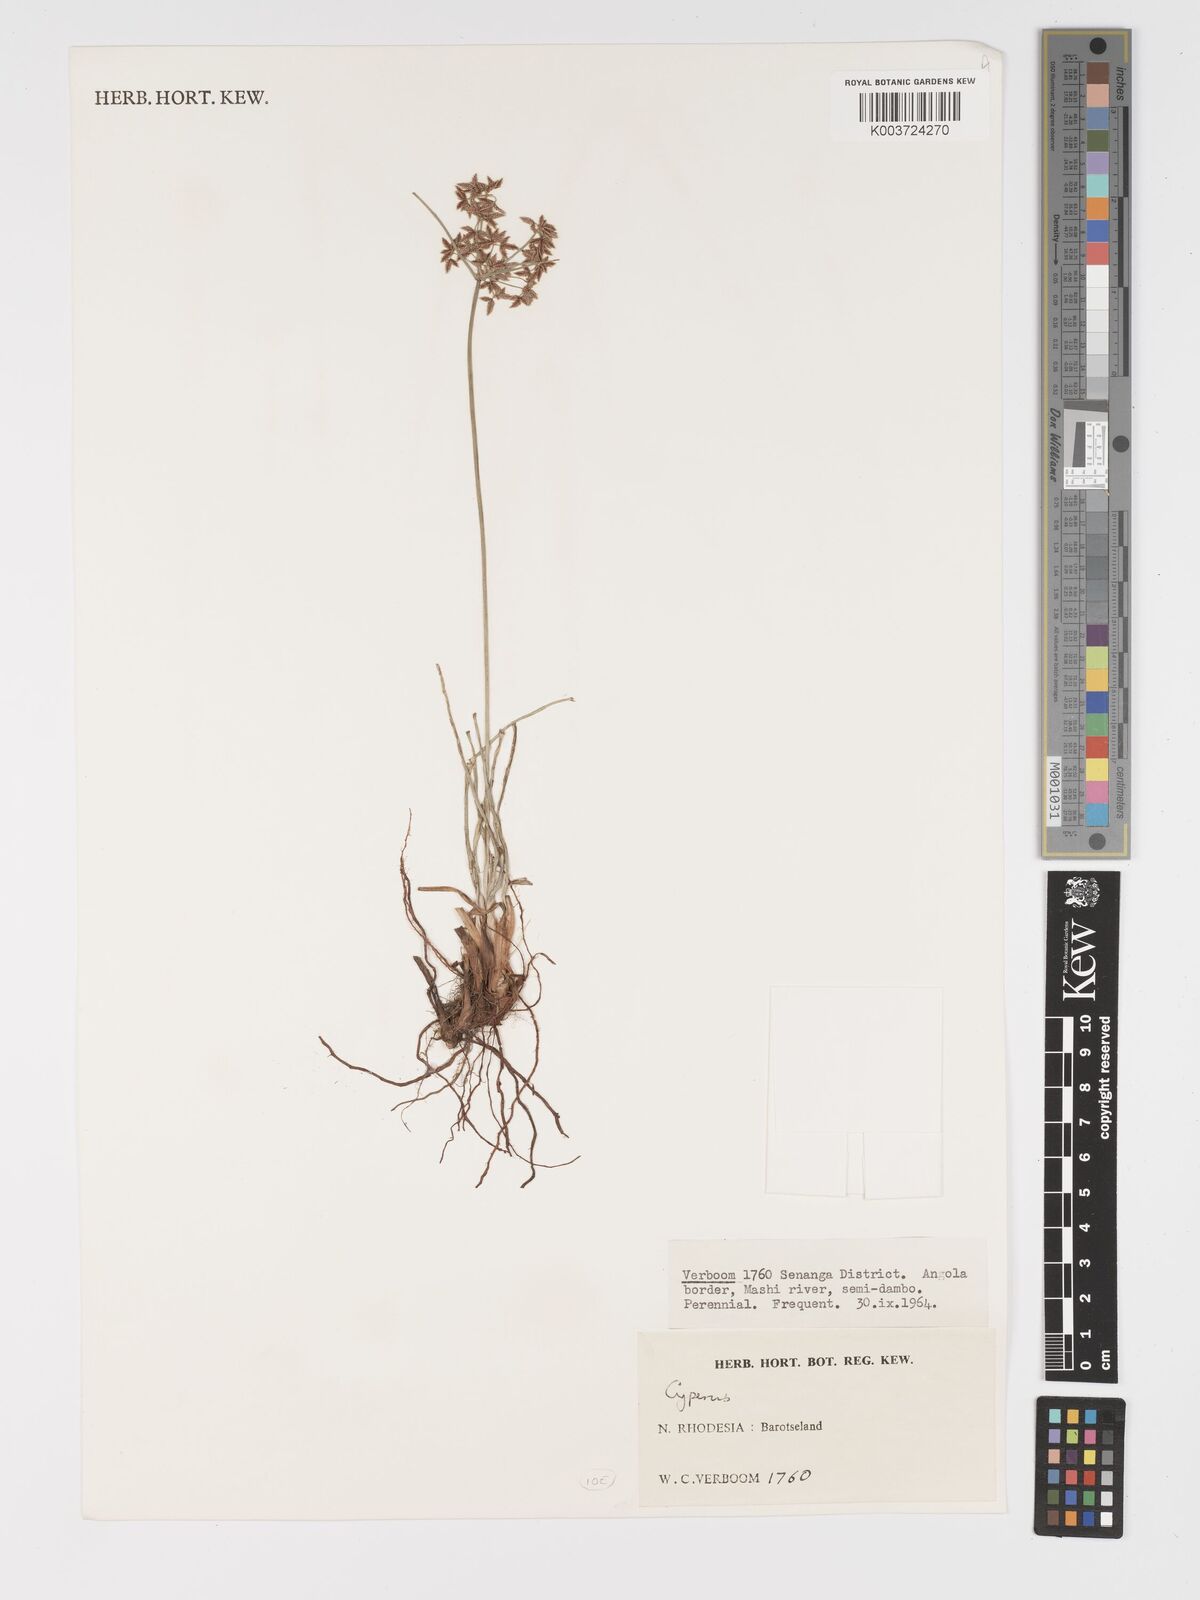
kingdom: Plantae
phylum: Tracheophyta
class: Liliopsida
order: Poales
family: Cyperaceae
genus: Cyperus
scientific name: Cyperus
